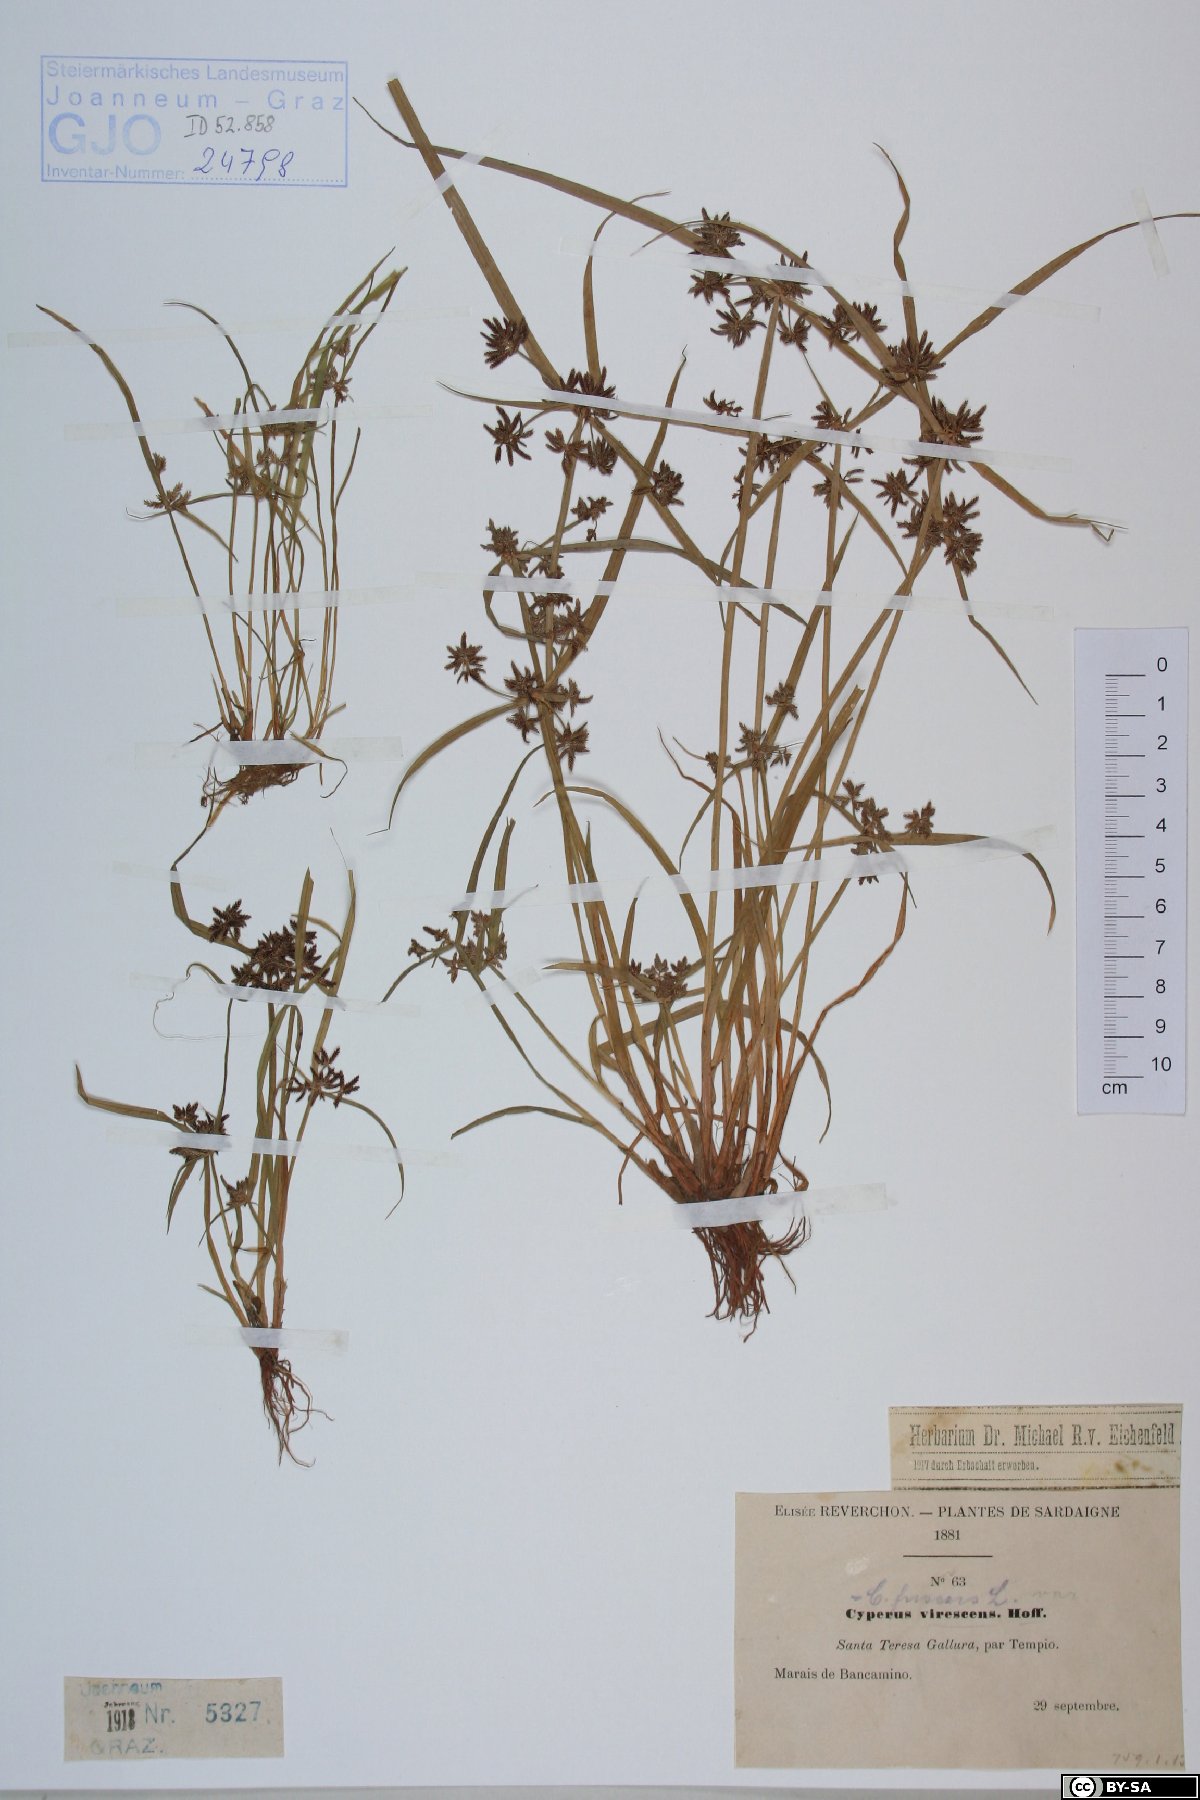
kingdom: Plantae
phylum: Tracheophyta
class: Liliopsida
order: Poales
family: Cyperaceae
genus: Cyperus
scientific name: Cyperus fuscus
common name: Brown galingale
